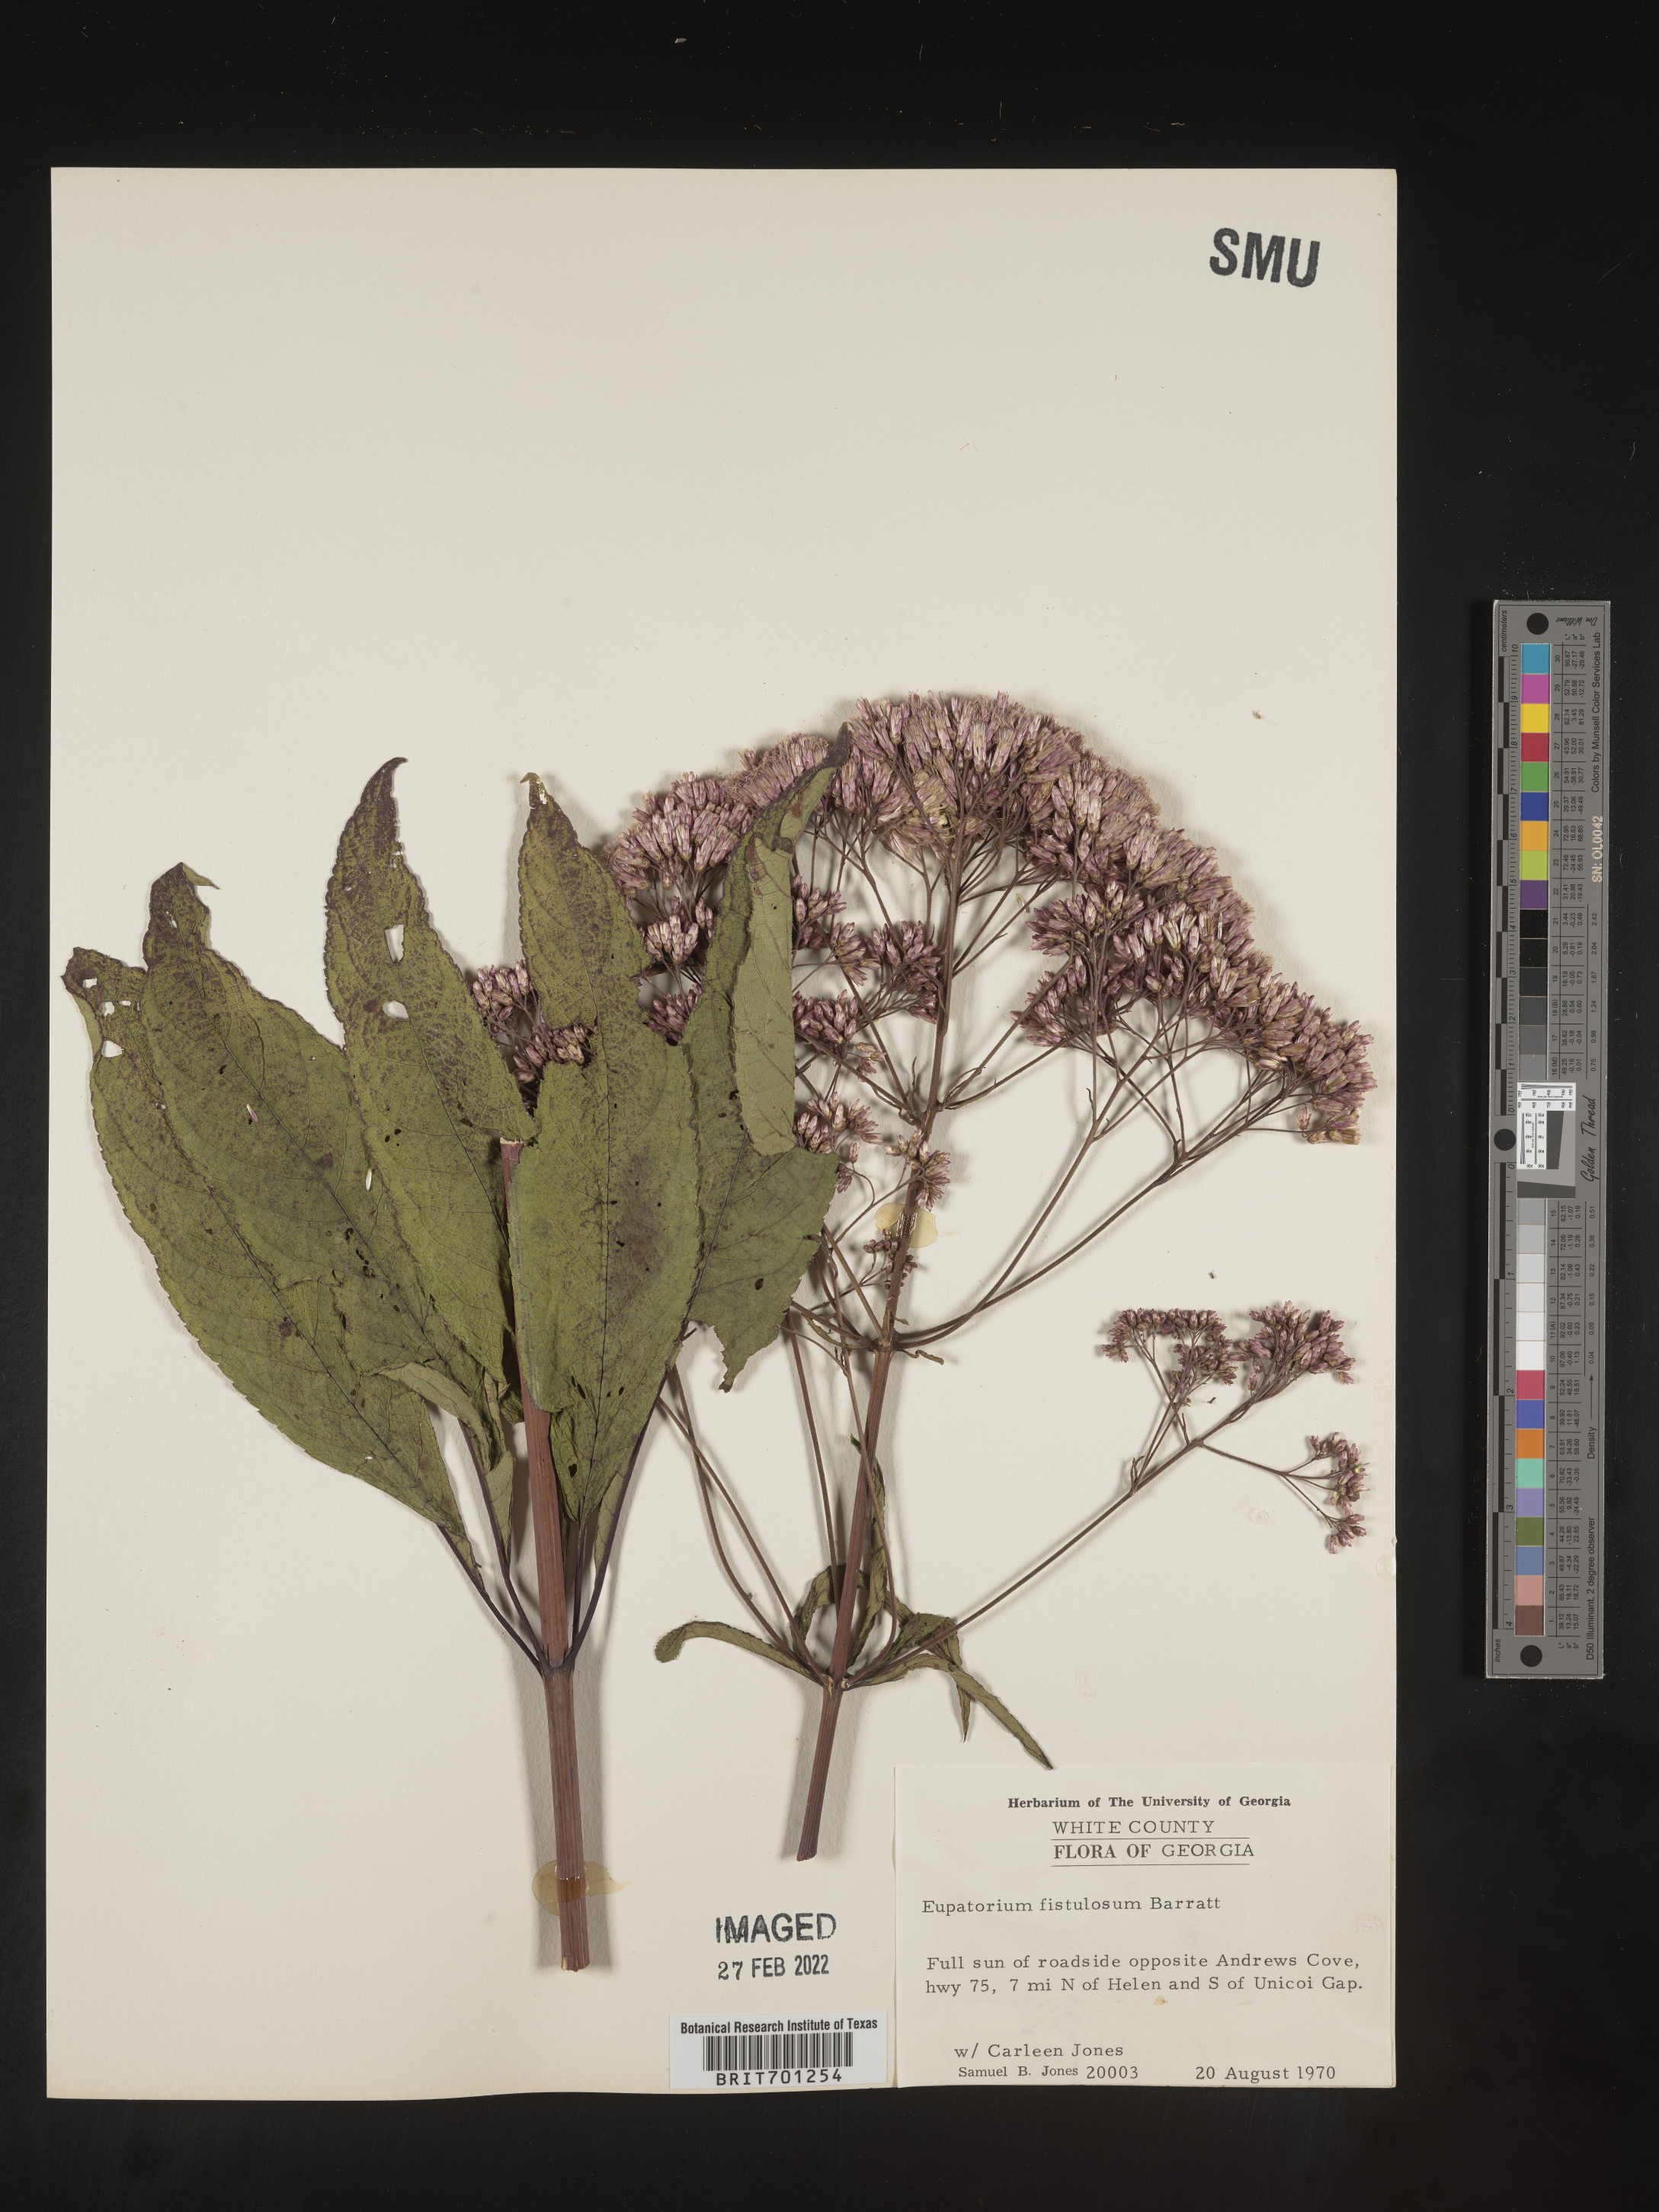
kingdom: Plantae
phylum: Tracheophyta
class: Magnoliopsida
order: Asterales
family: Asteraceae
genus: Eutrochium
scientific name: Eutrochium fistulosum
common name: Trumpetweed
